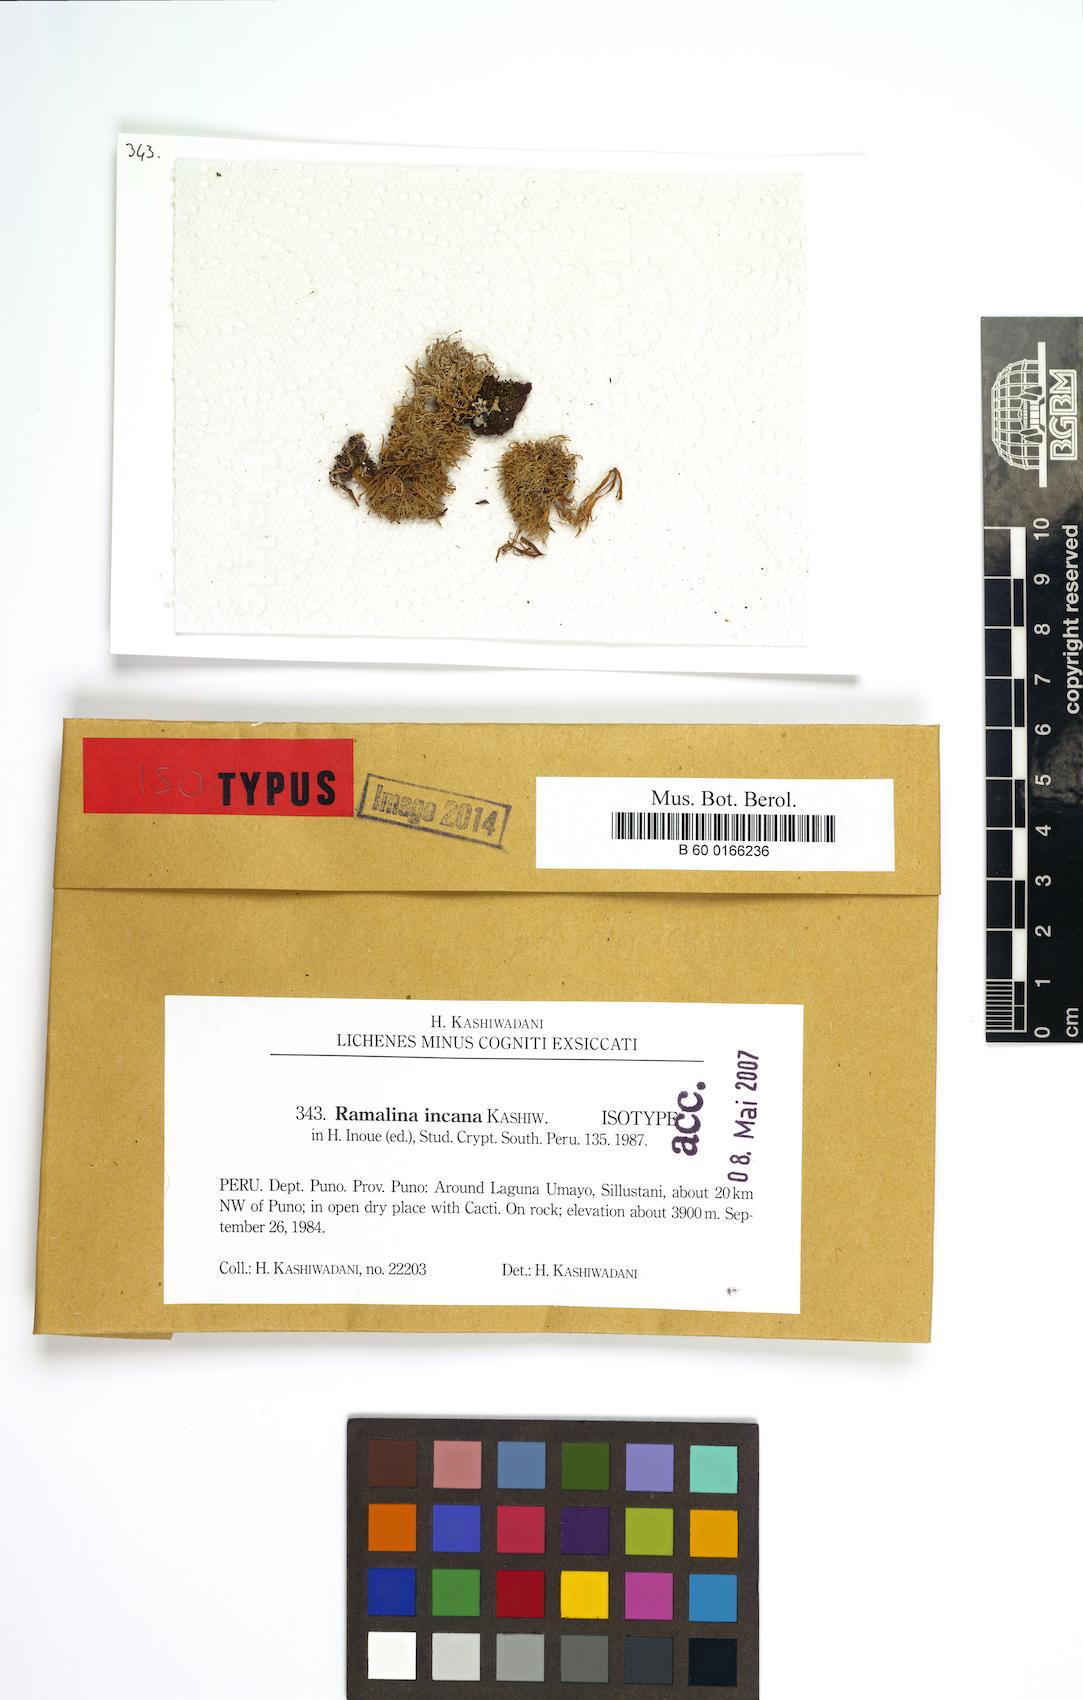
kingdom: Fungi
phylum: Ascomycota
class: Lecanoromycetes
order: Lecanorales
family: Ramalinaceae
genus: Ramalina
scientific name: Ramalina incana
